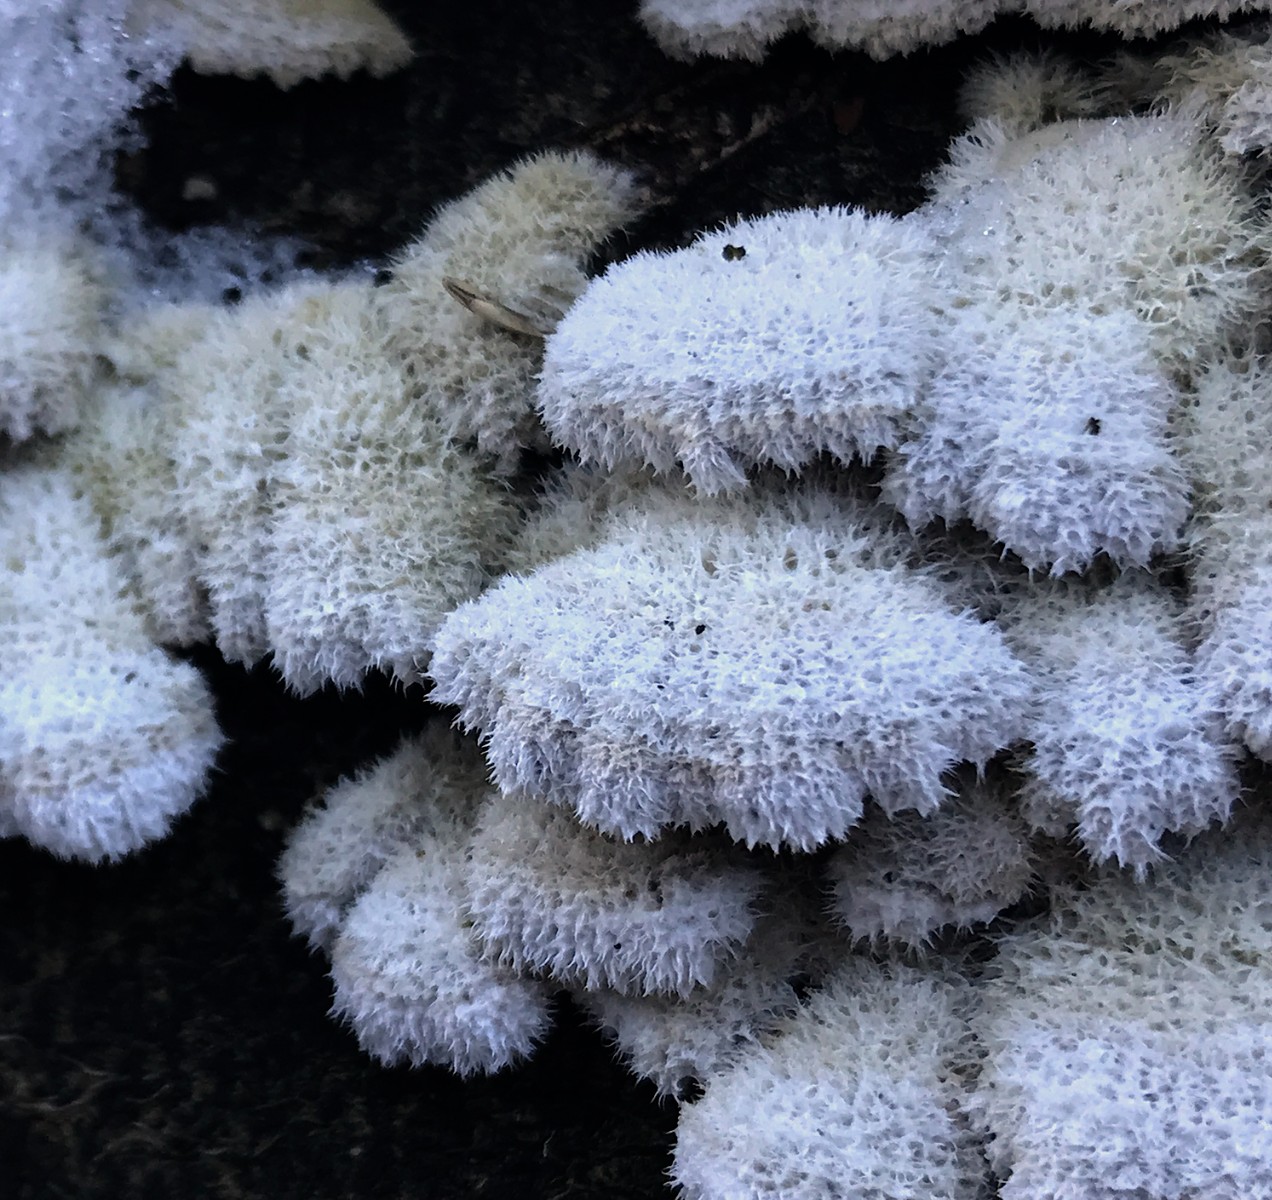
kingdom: Fungi
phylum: Basidiomycota
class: Agaricomycetes
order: Agaricales
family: Schizophyllaceae
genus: Schizophyllum
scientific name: Schizophyllum commune
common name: kløvblad
